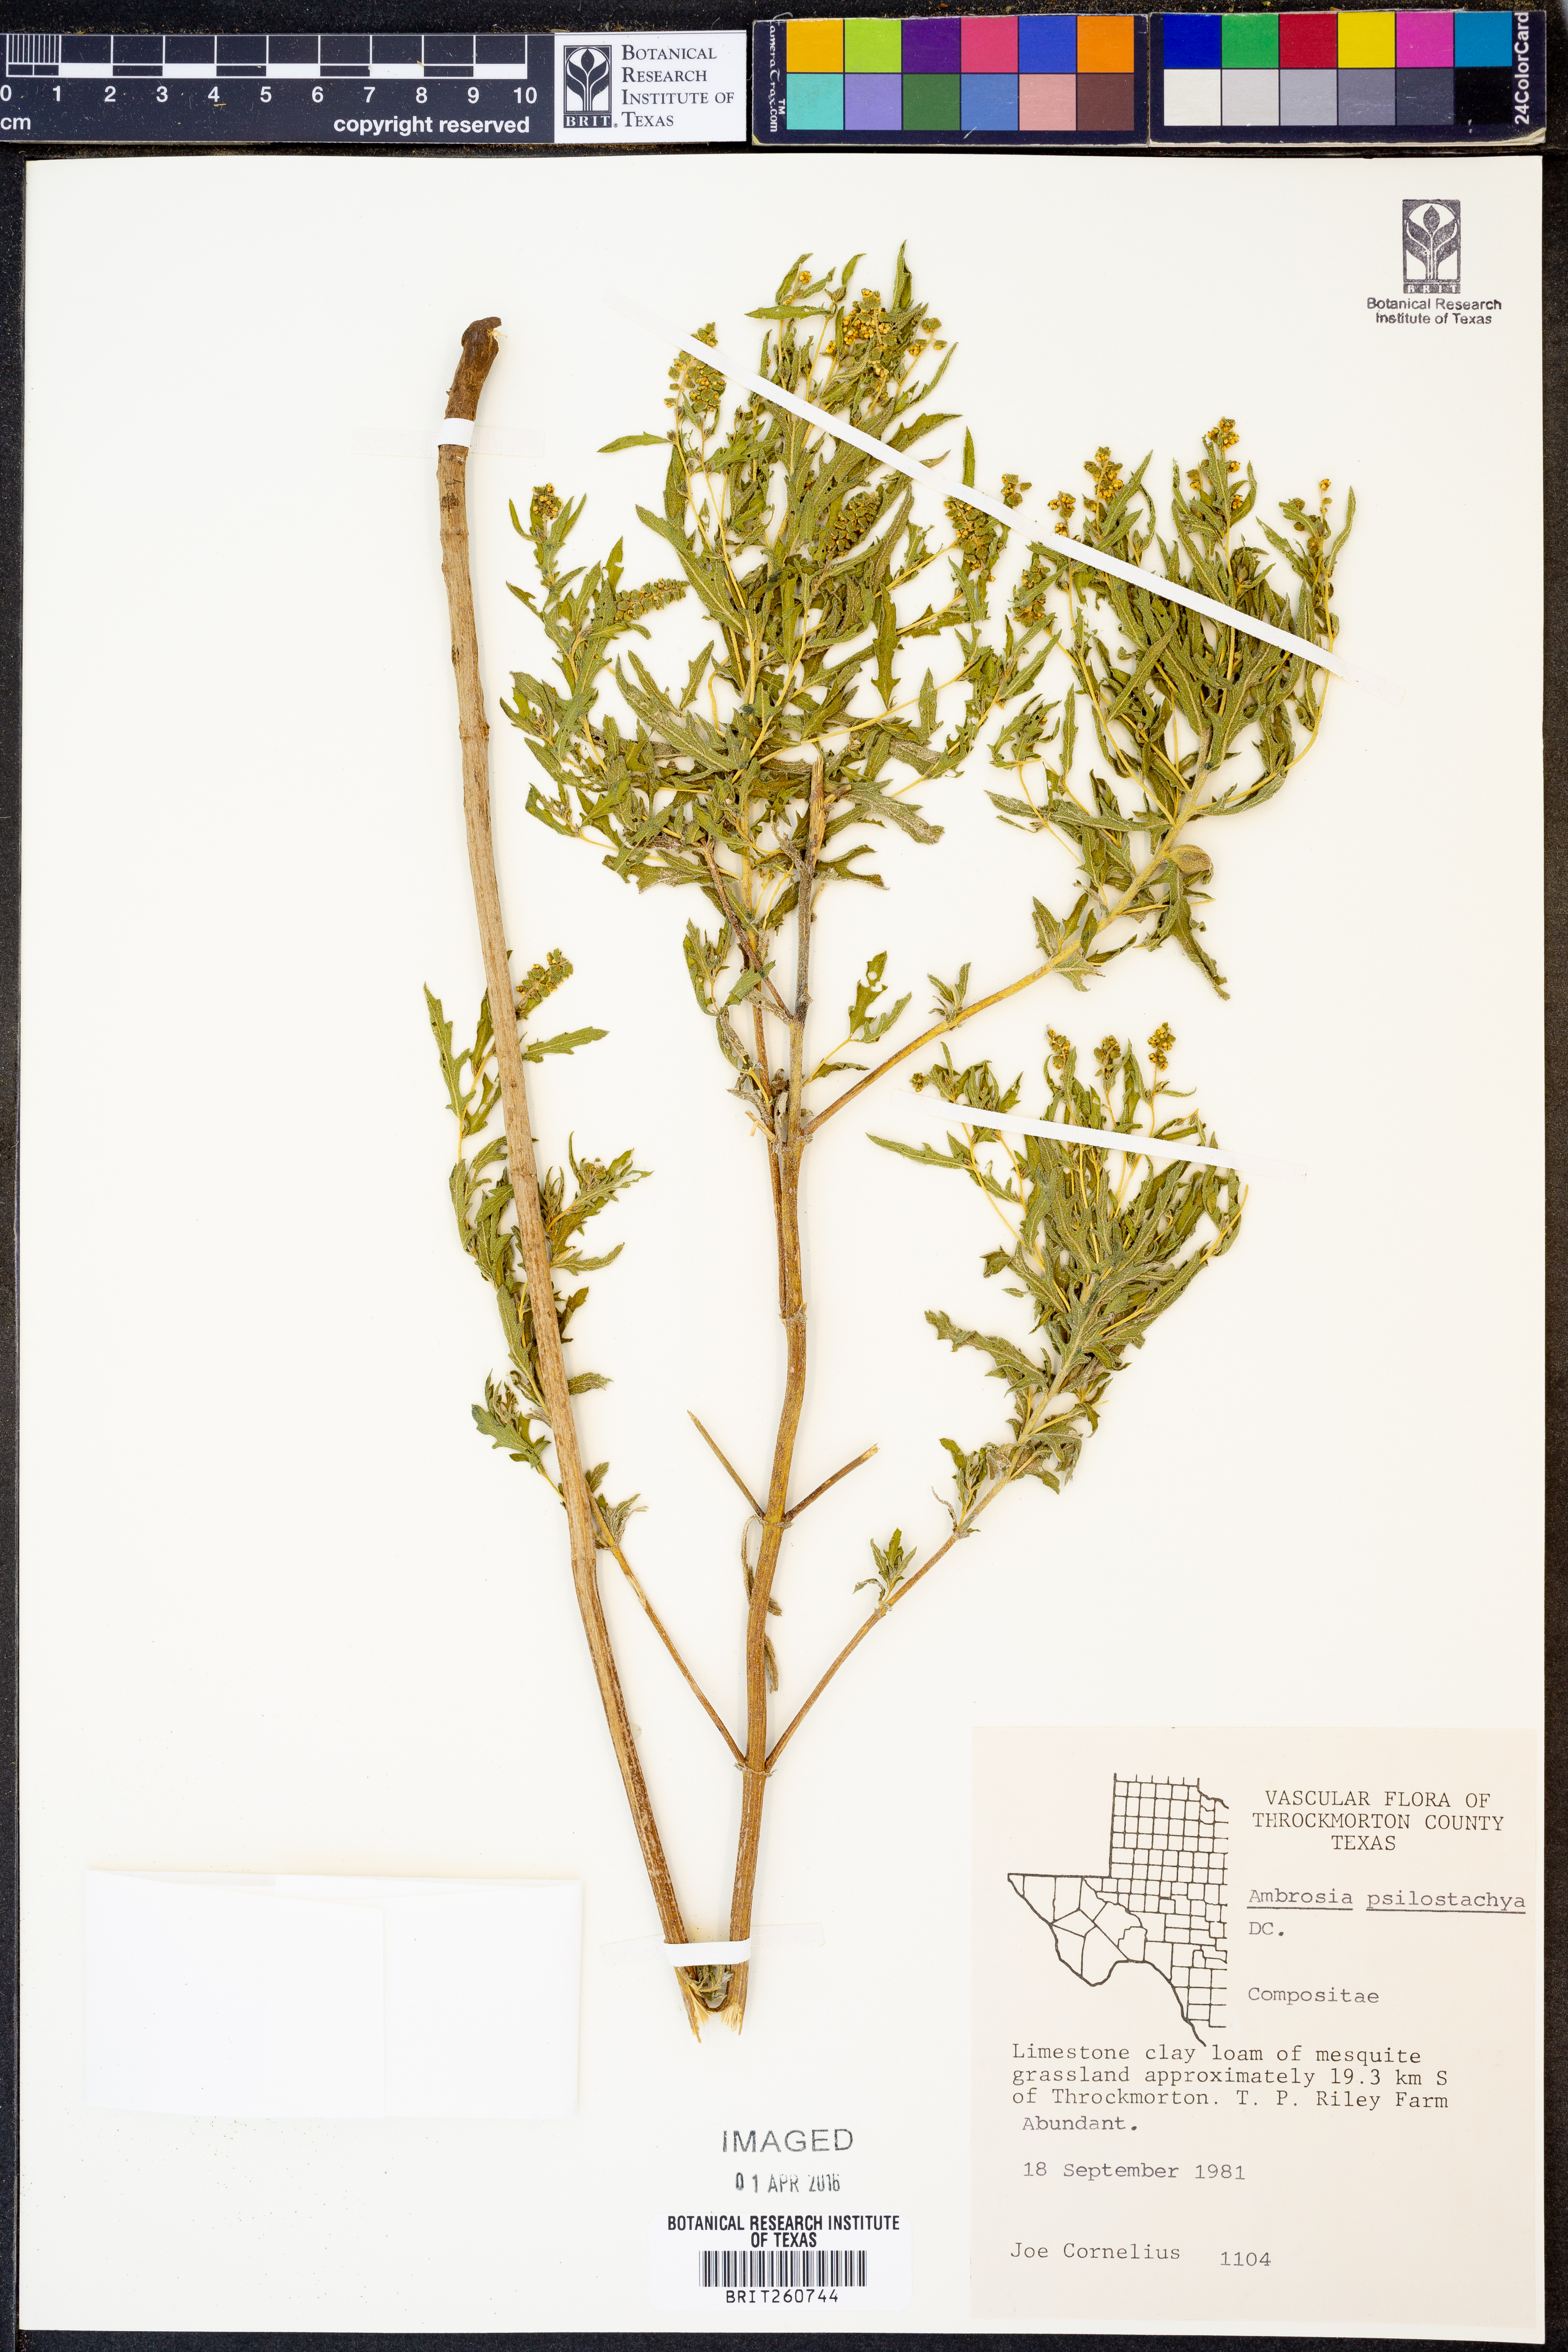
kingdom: Plantae
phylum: Tracheophyta
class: Magnoliopsida
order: Asterales
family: Asteraceae
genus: Ambrosia
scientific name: Ambrosia psilostachya
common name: Perennial ragweed
